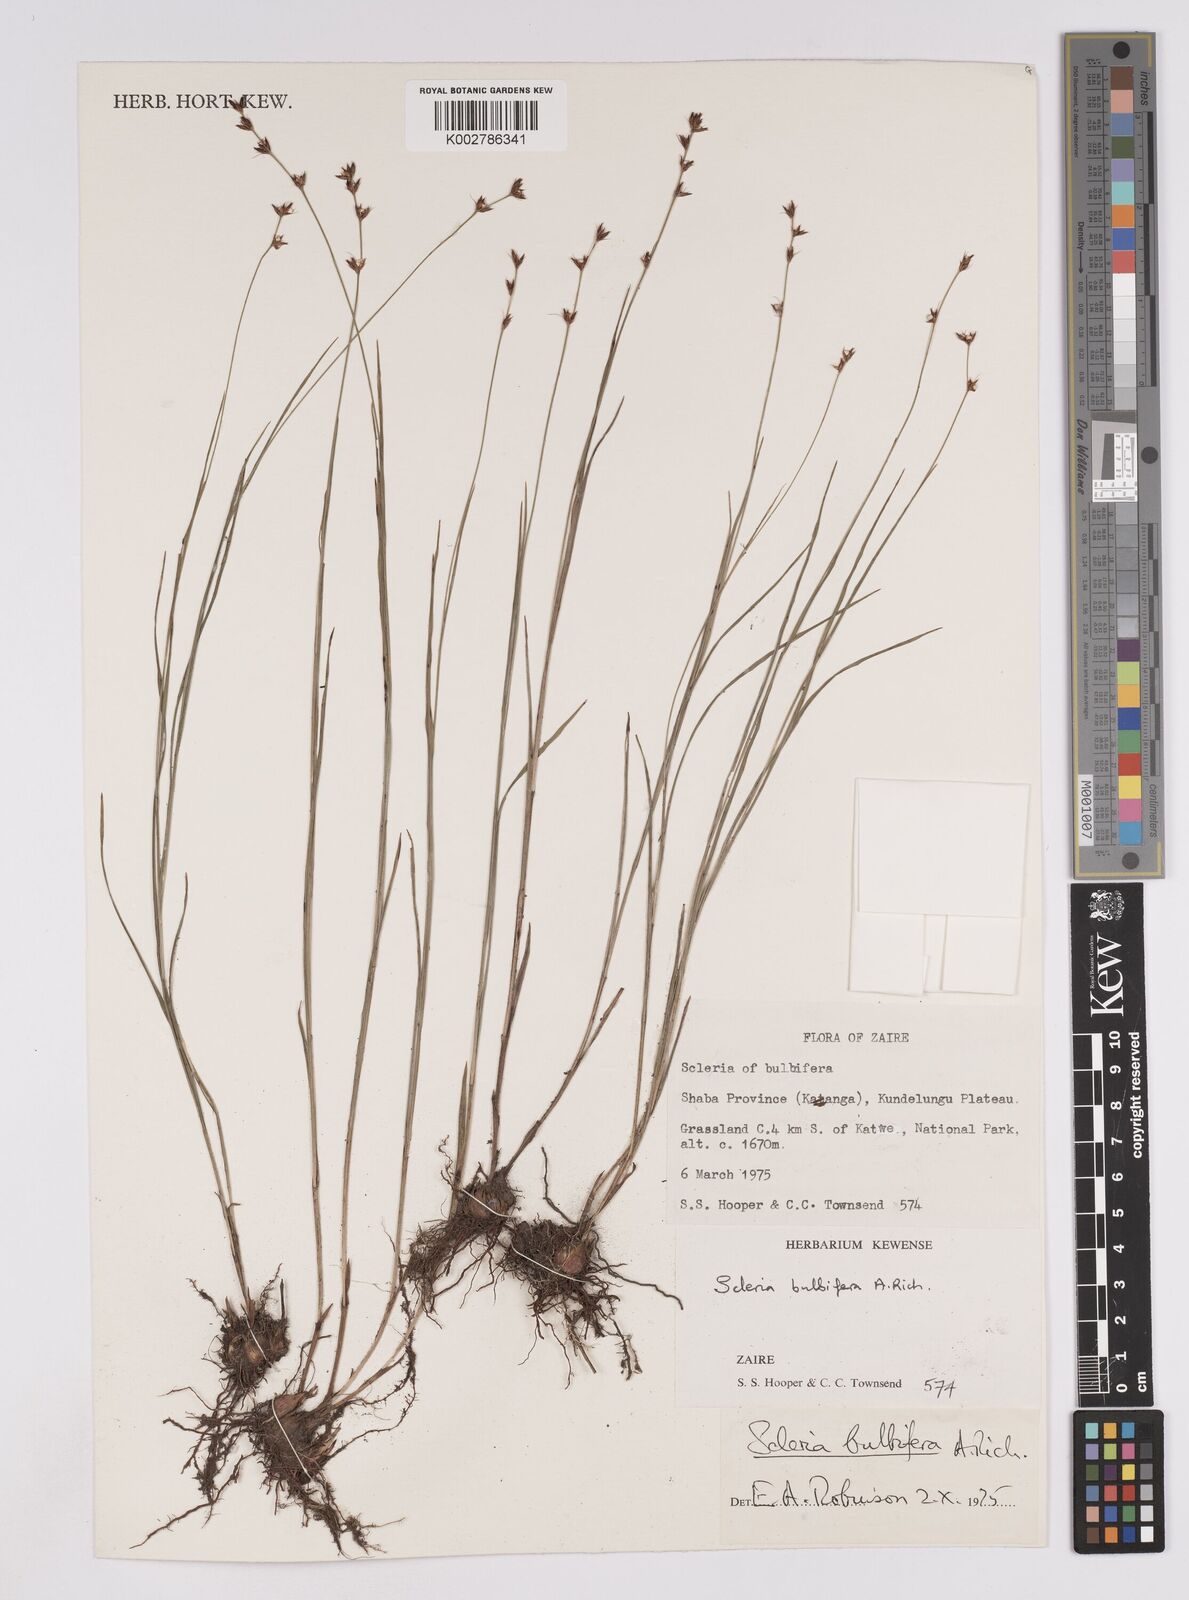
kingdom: Plantae
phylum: Tracheophyta
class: Liliopsida
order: Poales
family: Cyperaceae
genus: Scleria
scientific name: Scleria bulbifera
